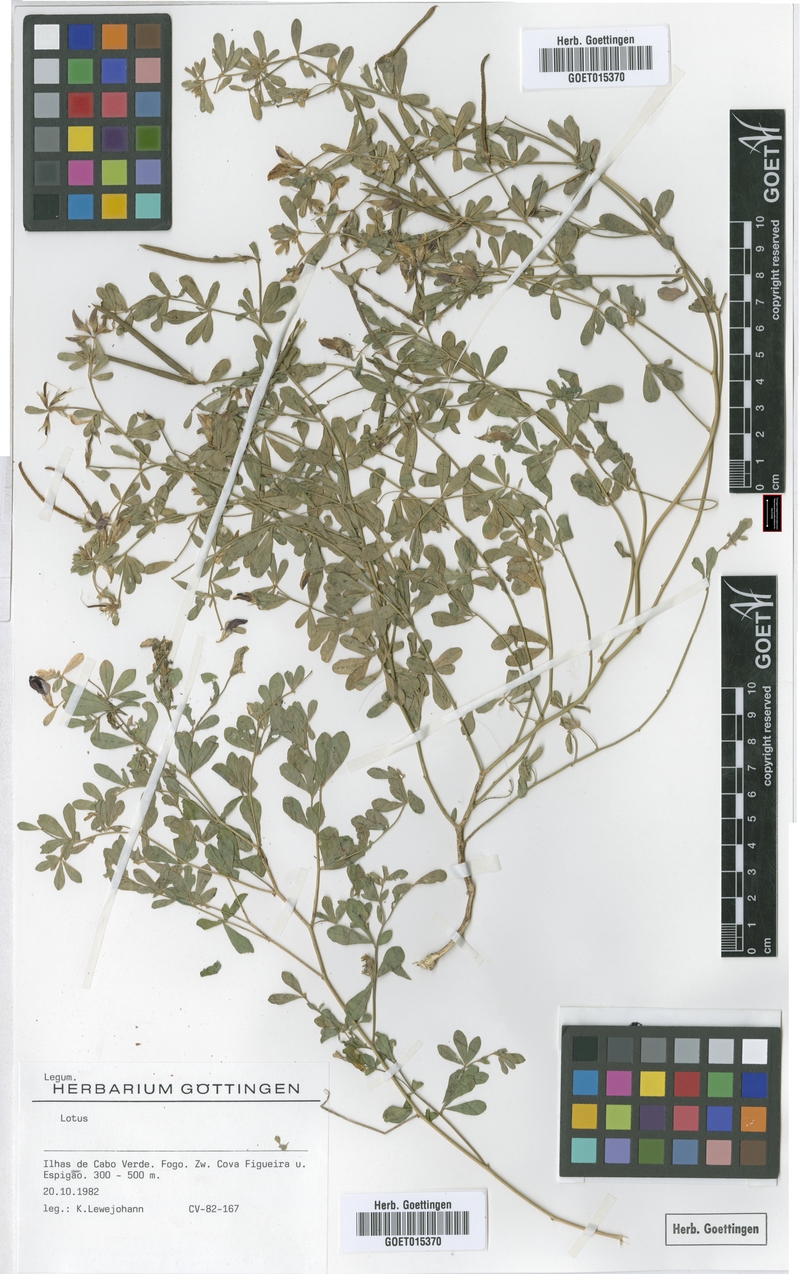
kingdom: Plantae
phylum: Tracheophyta
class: Magnoliopsida
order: Fabales
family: Fabaceae
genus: Lotus
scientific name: Lotus
